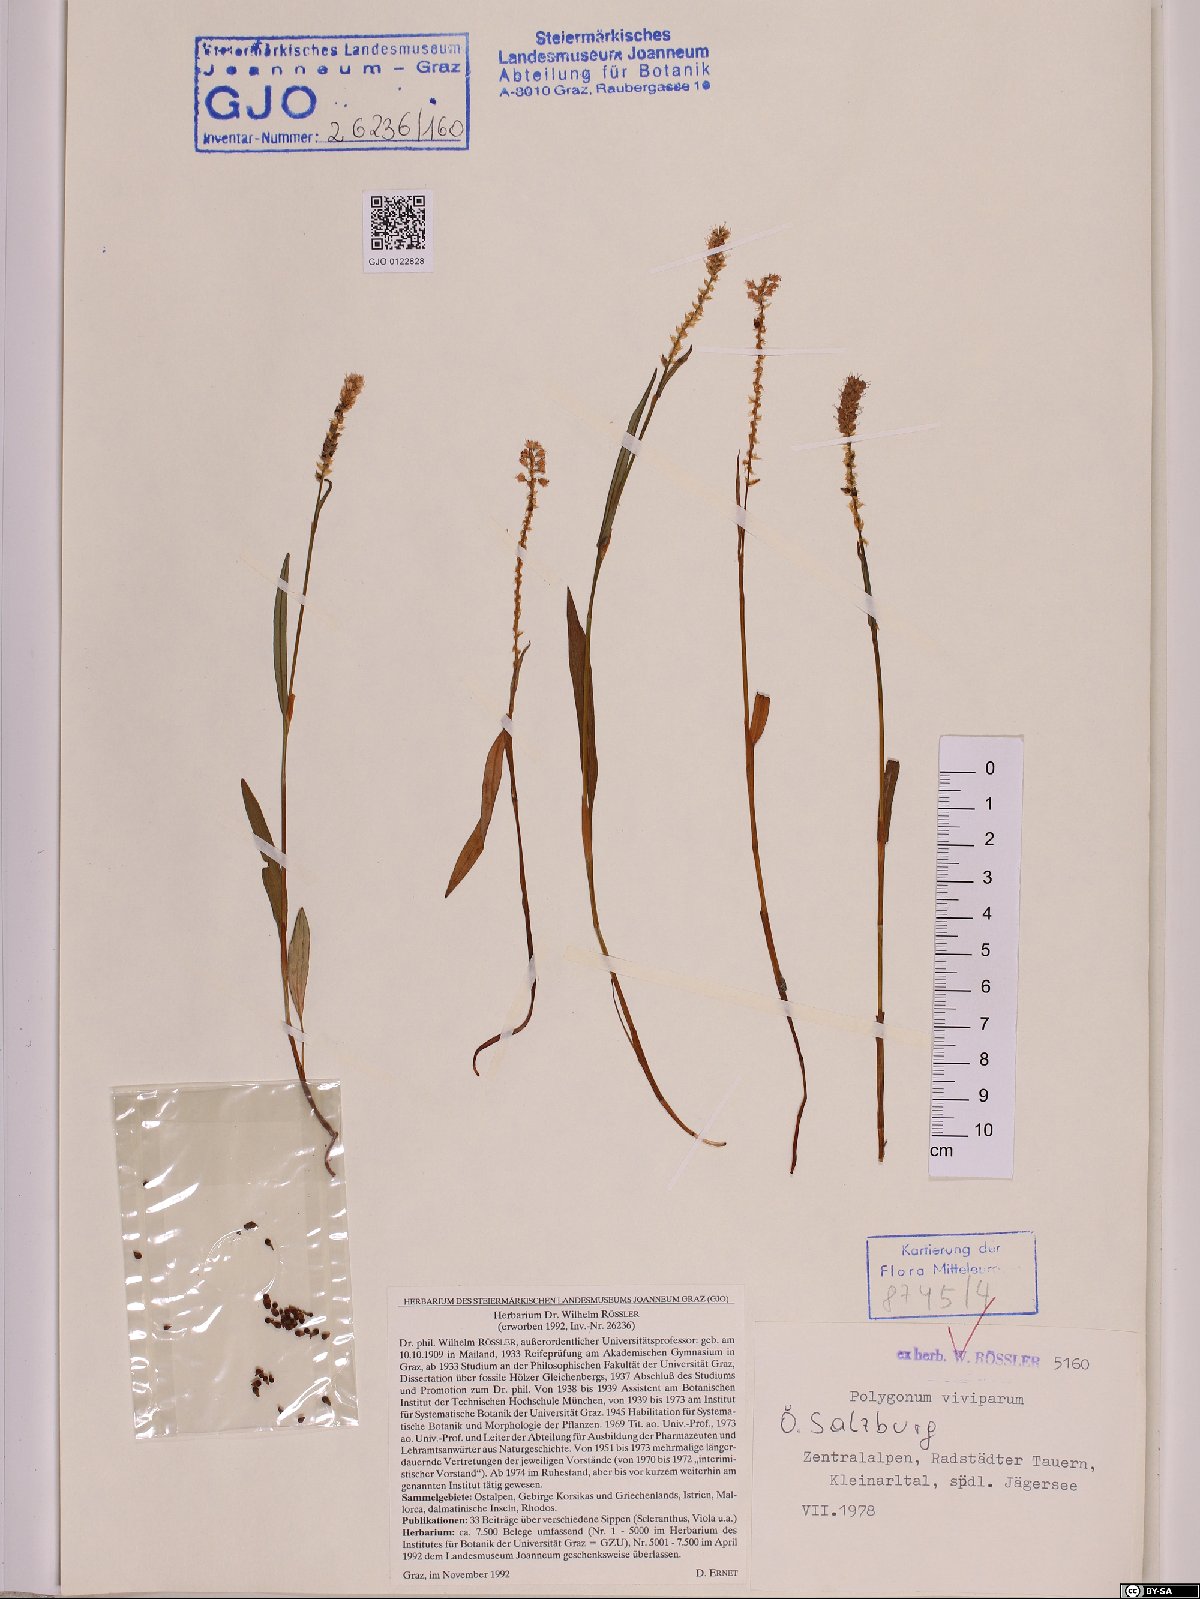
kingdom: Plantae
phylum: Tracheophyta
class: Magnoliopsida
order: Caryophyllales
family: Polygonaceae
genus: Bistorta
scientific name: Bistorta vivipara
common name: Alpine bistort
